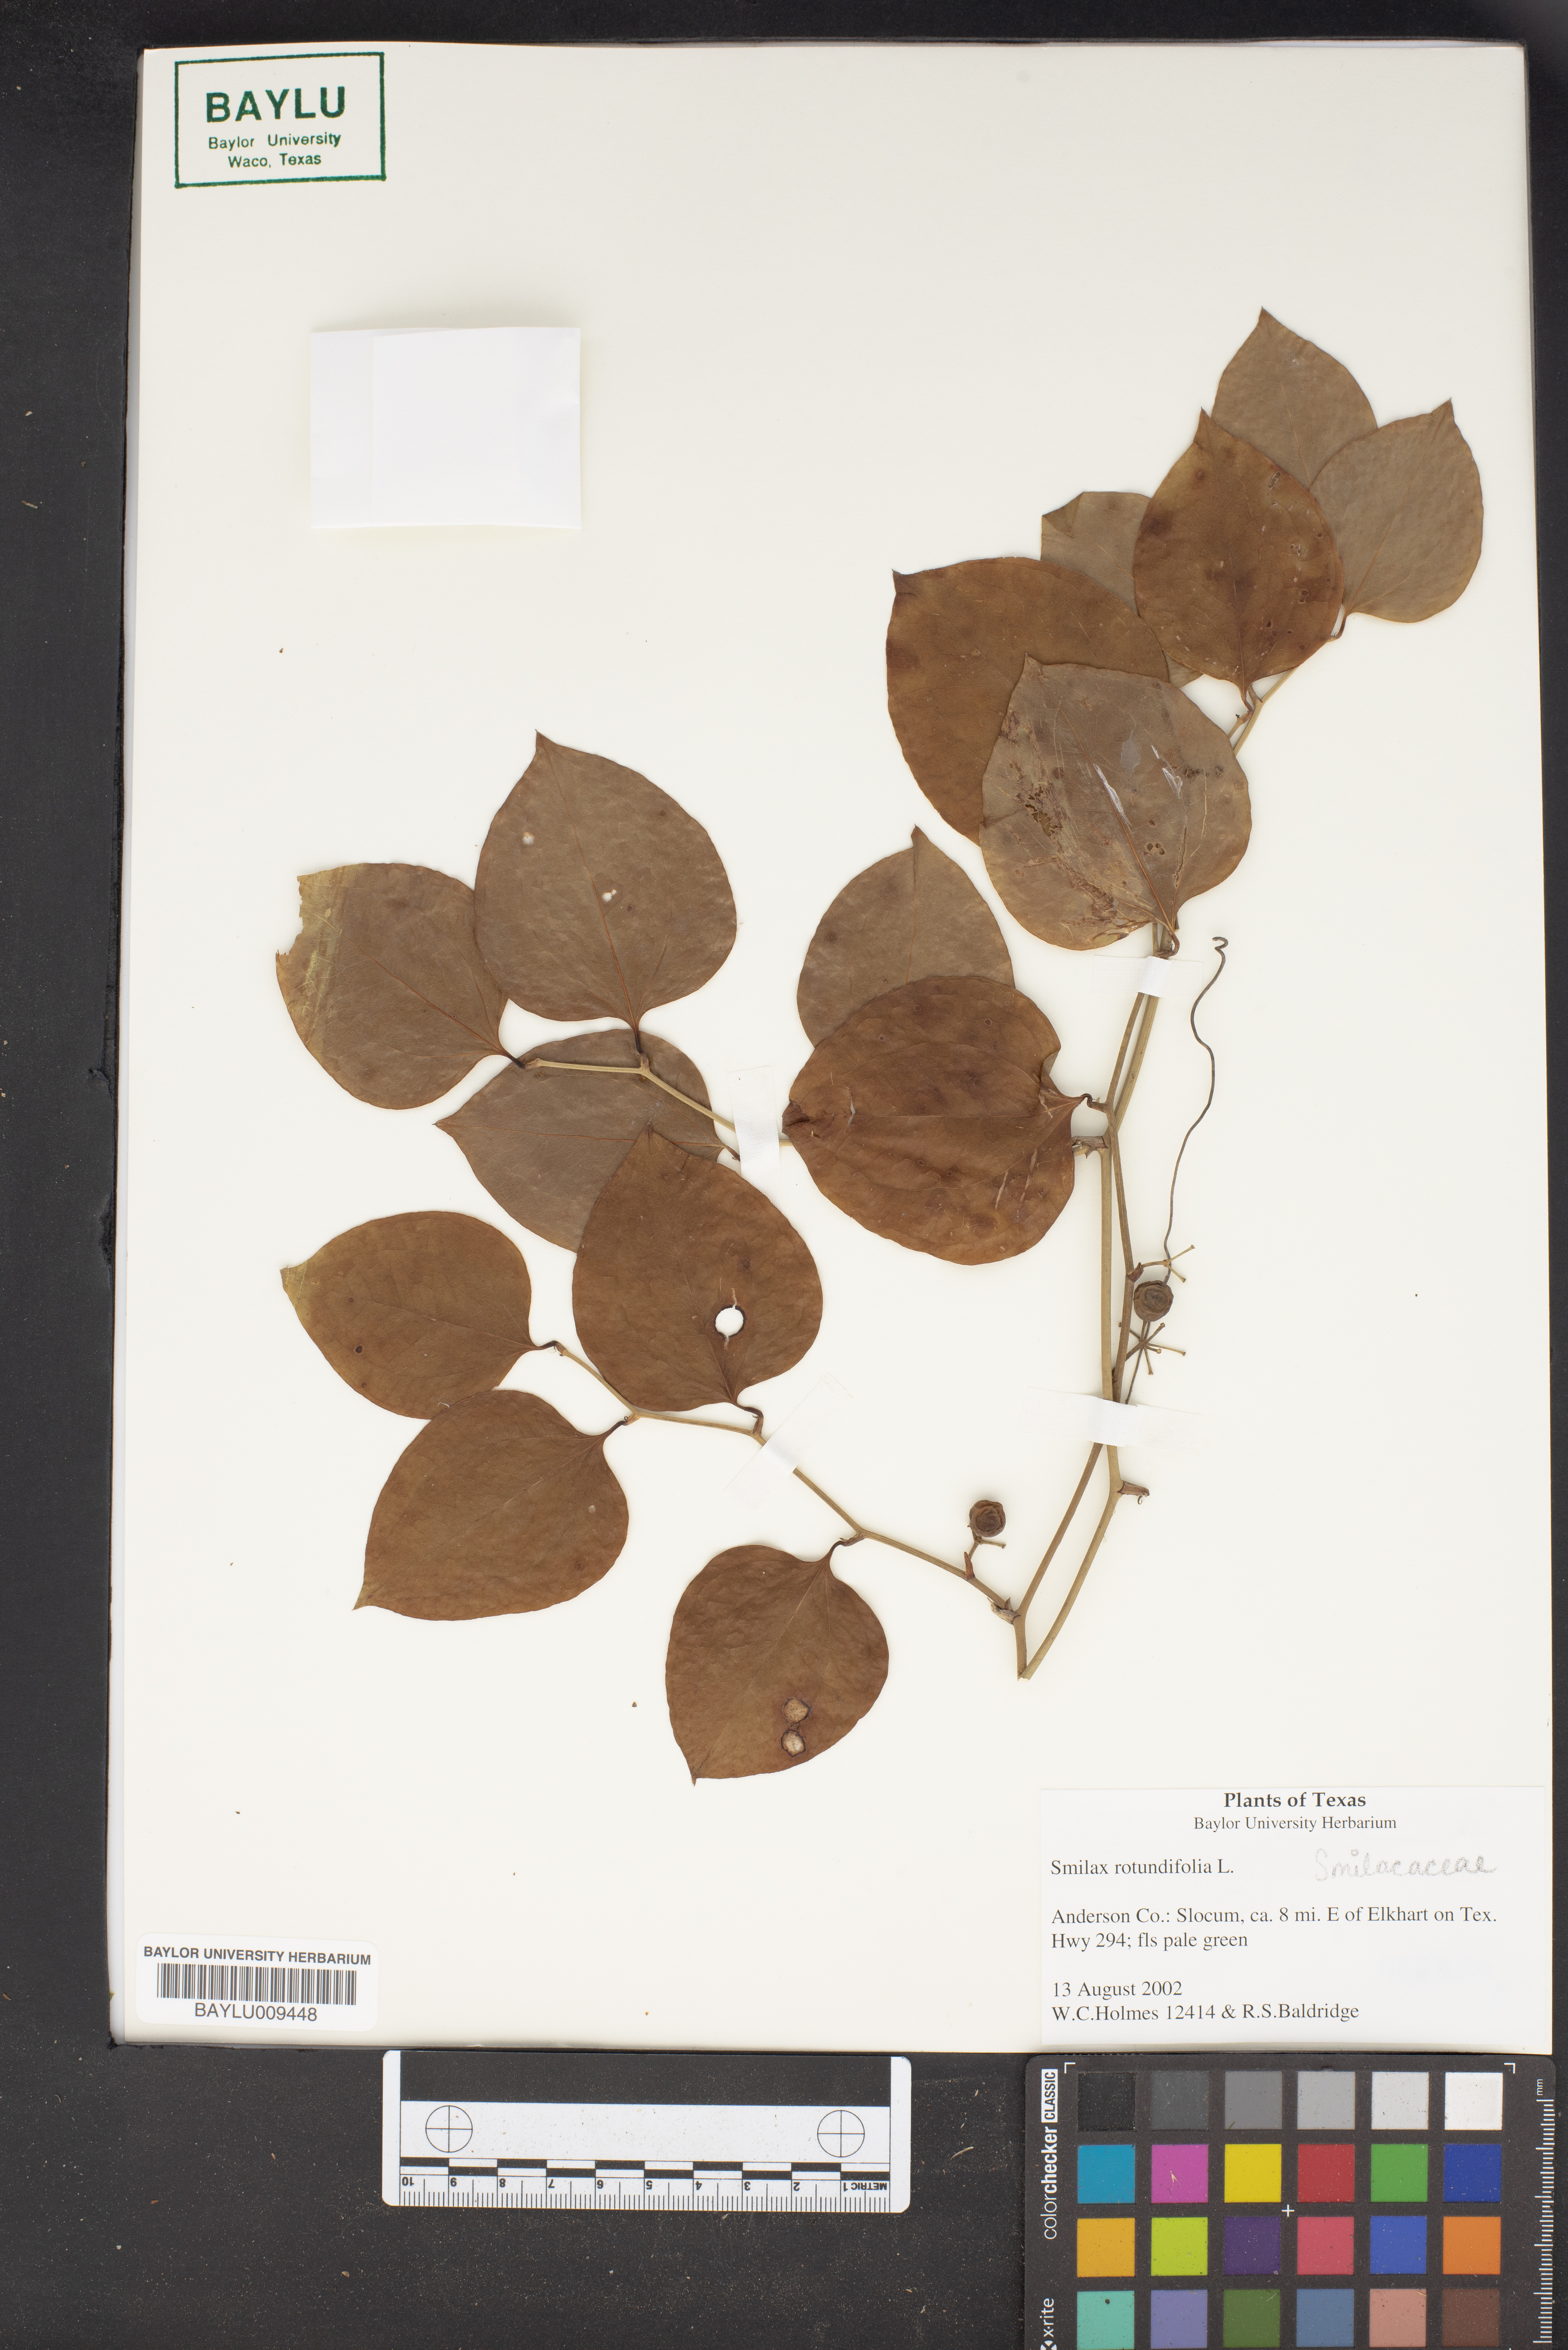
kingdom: Plantae
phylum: Tracheophyta
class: Liliopsida
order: Liliales
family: Smilacaceae
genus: Smilax
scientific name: Smilax rotundifolia
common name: Bullbriar
